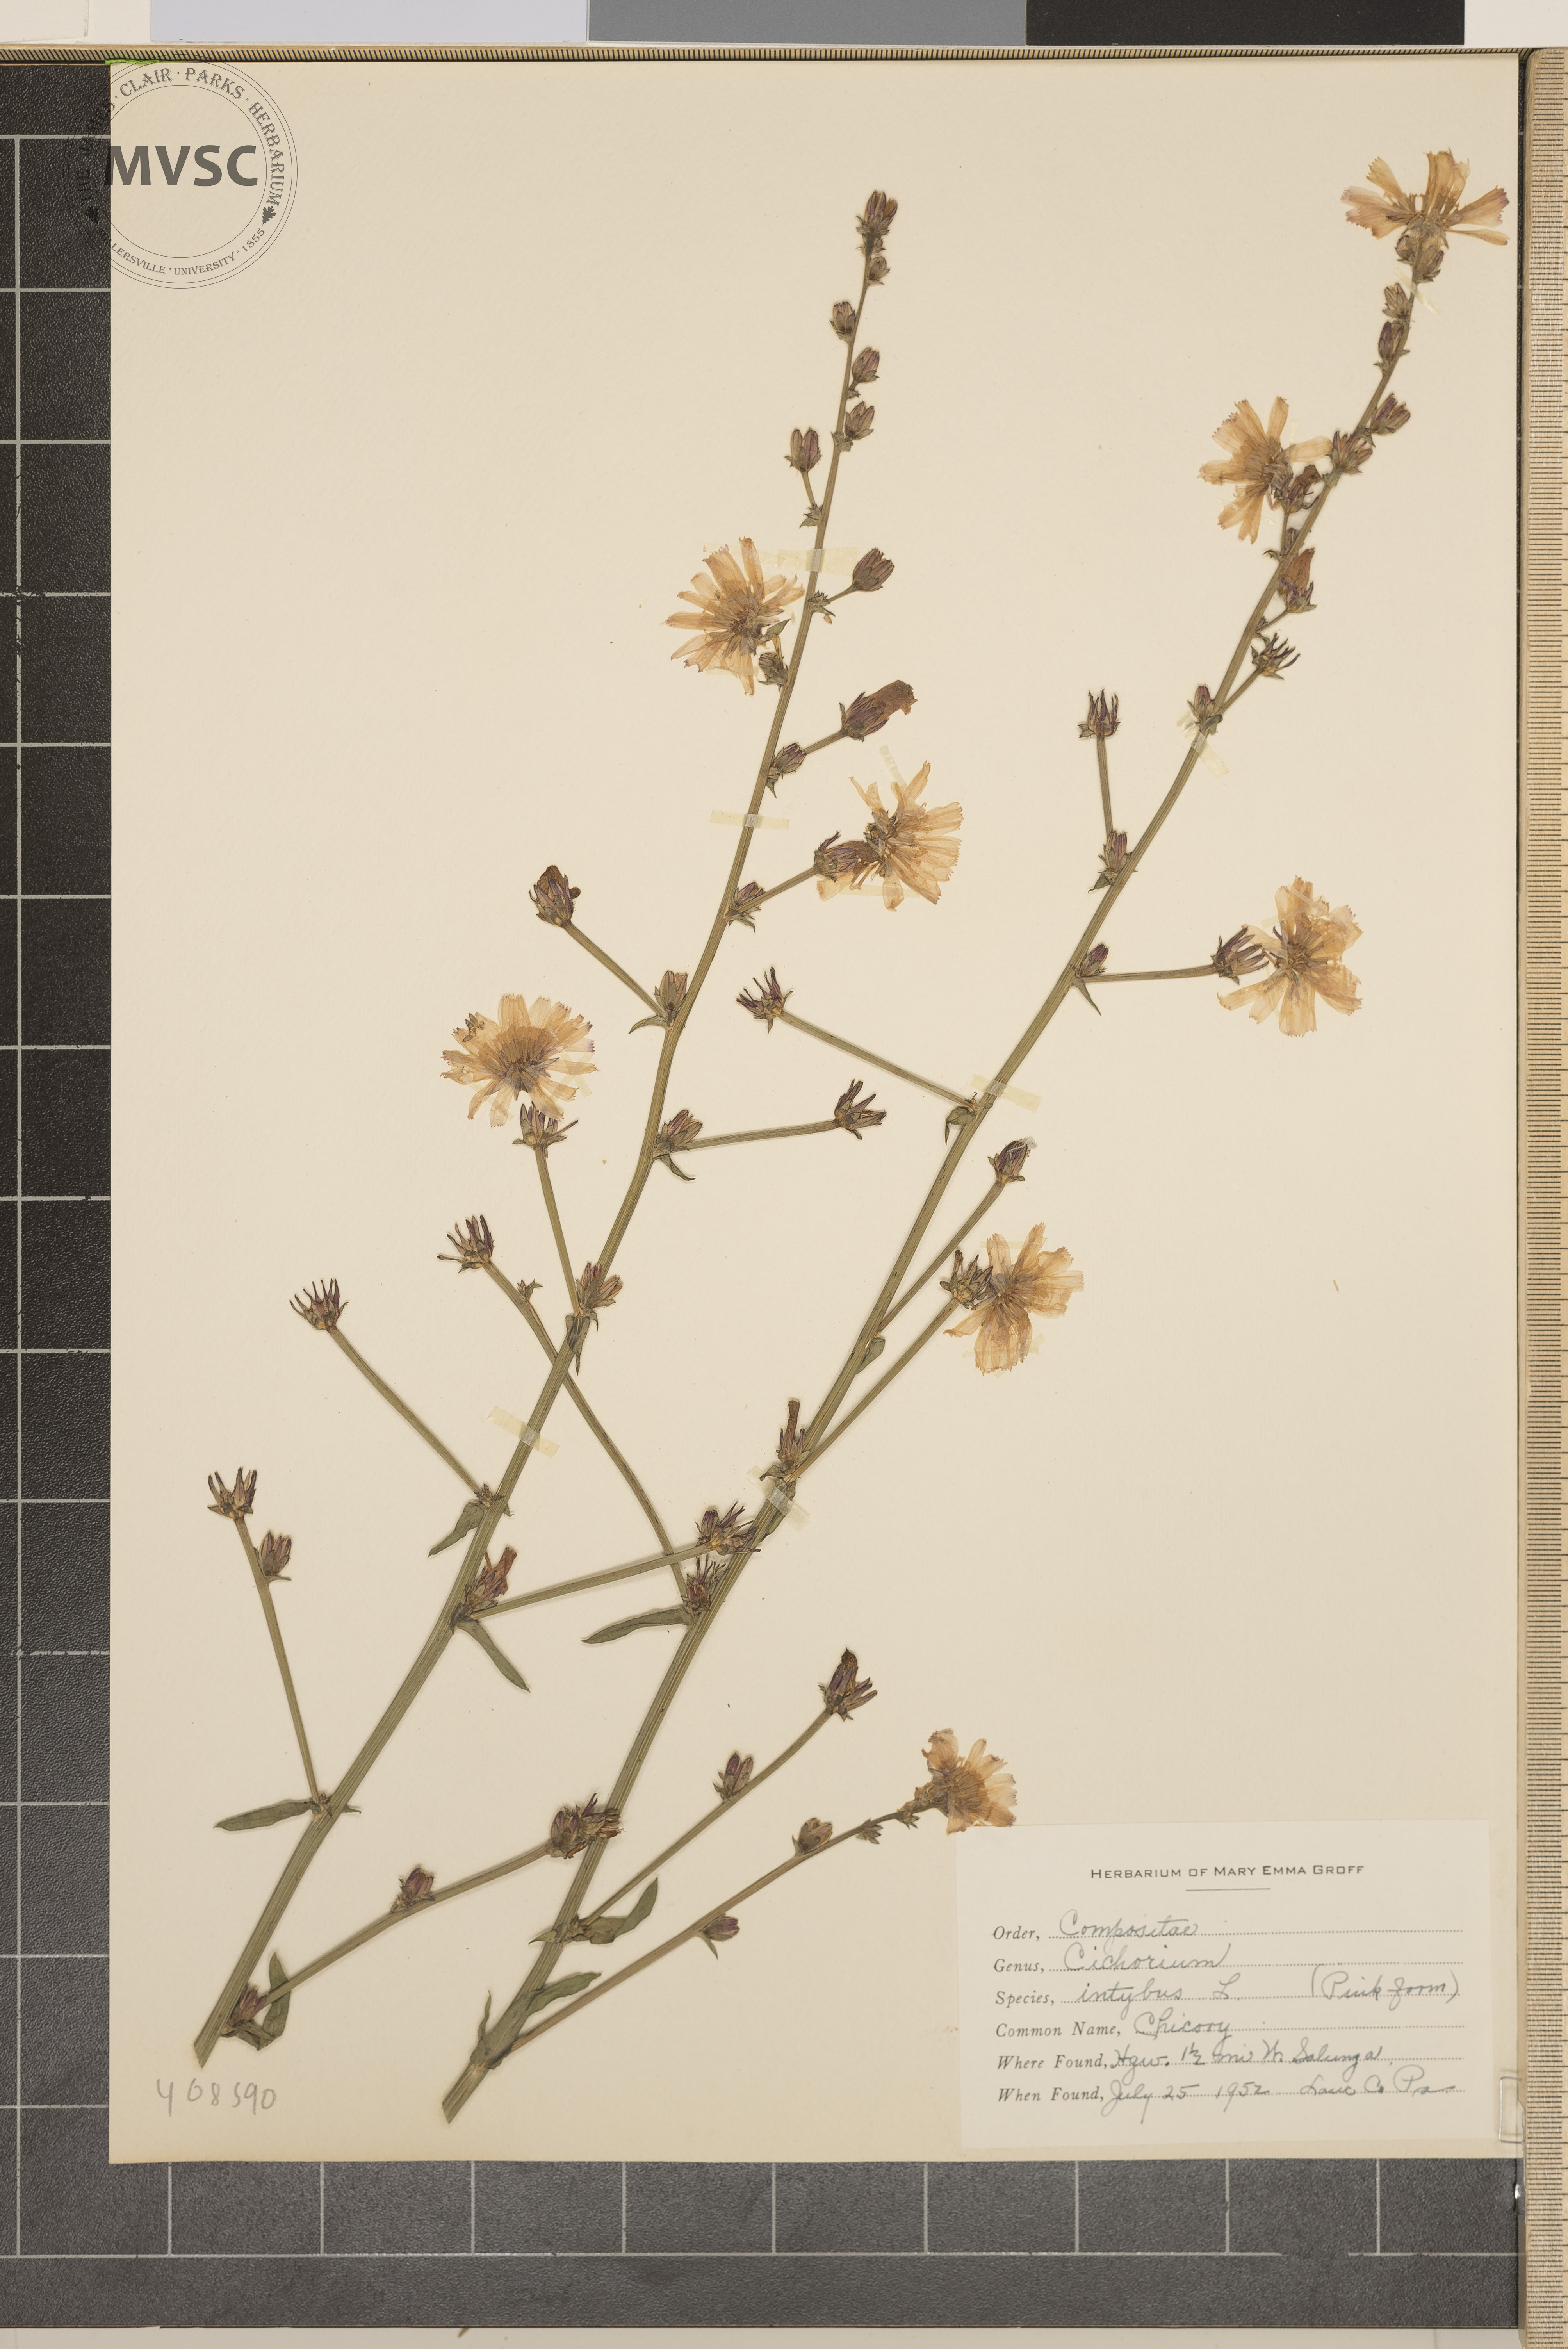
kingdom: Plantae
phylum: Tracheophyta
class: Magnoliopsida
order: Asterales
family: Asteraceae
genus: Cichorium
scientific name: Cichorium intybus
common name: Chicory
